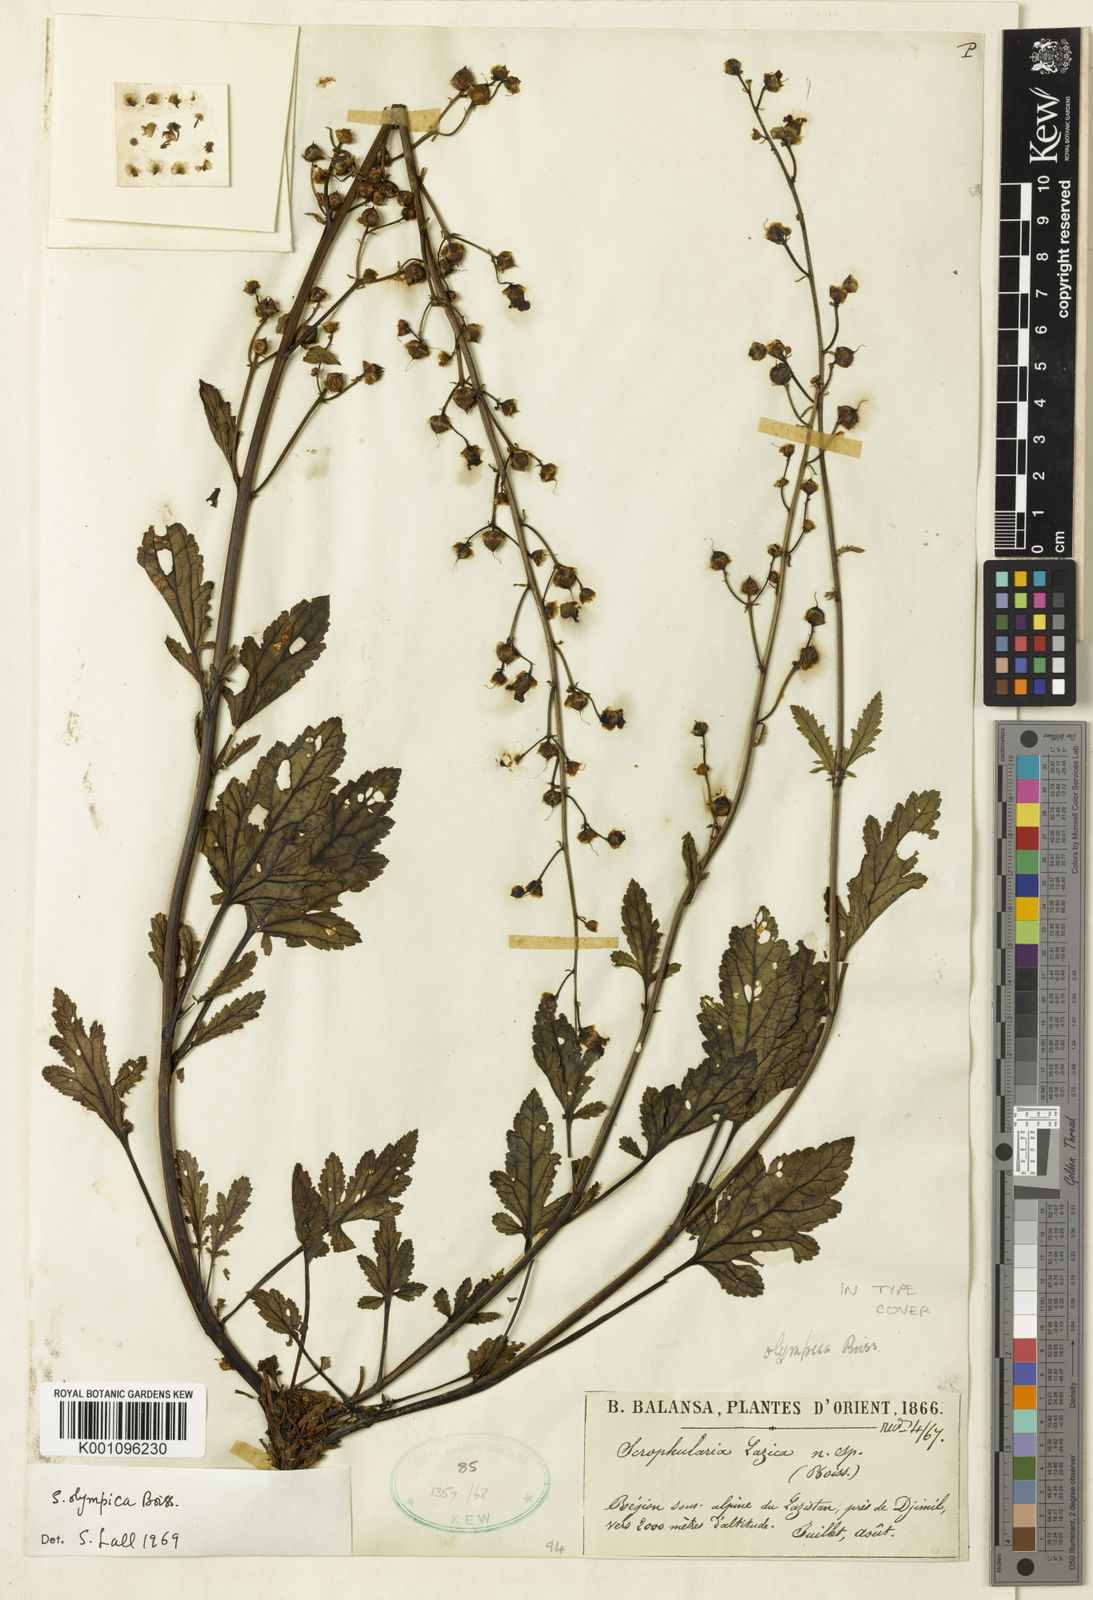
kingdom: Plantae
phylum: Tracheophyta
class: Magnoliopsida
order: Lamiales
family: Scrophulariaceae
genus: Scrophularia
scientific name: Scrophularia olympica
